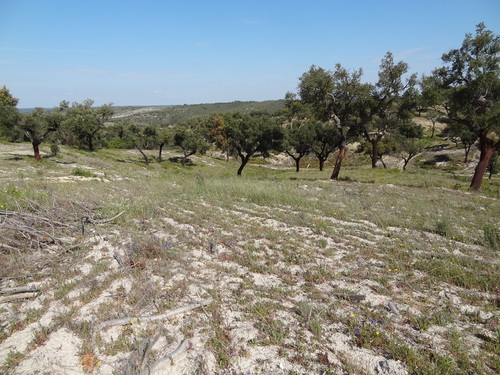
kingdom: Plantae
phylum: Tracheophyta
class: Magnoliopsida
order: Fagales
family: Fagaceae
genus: Quercus
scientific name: Quercus suber
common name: Cork oak
